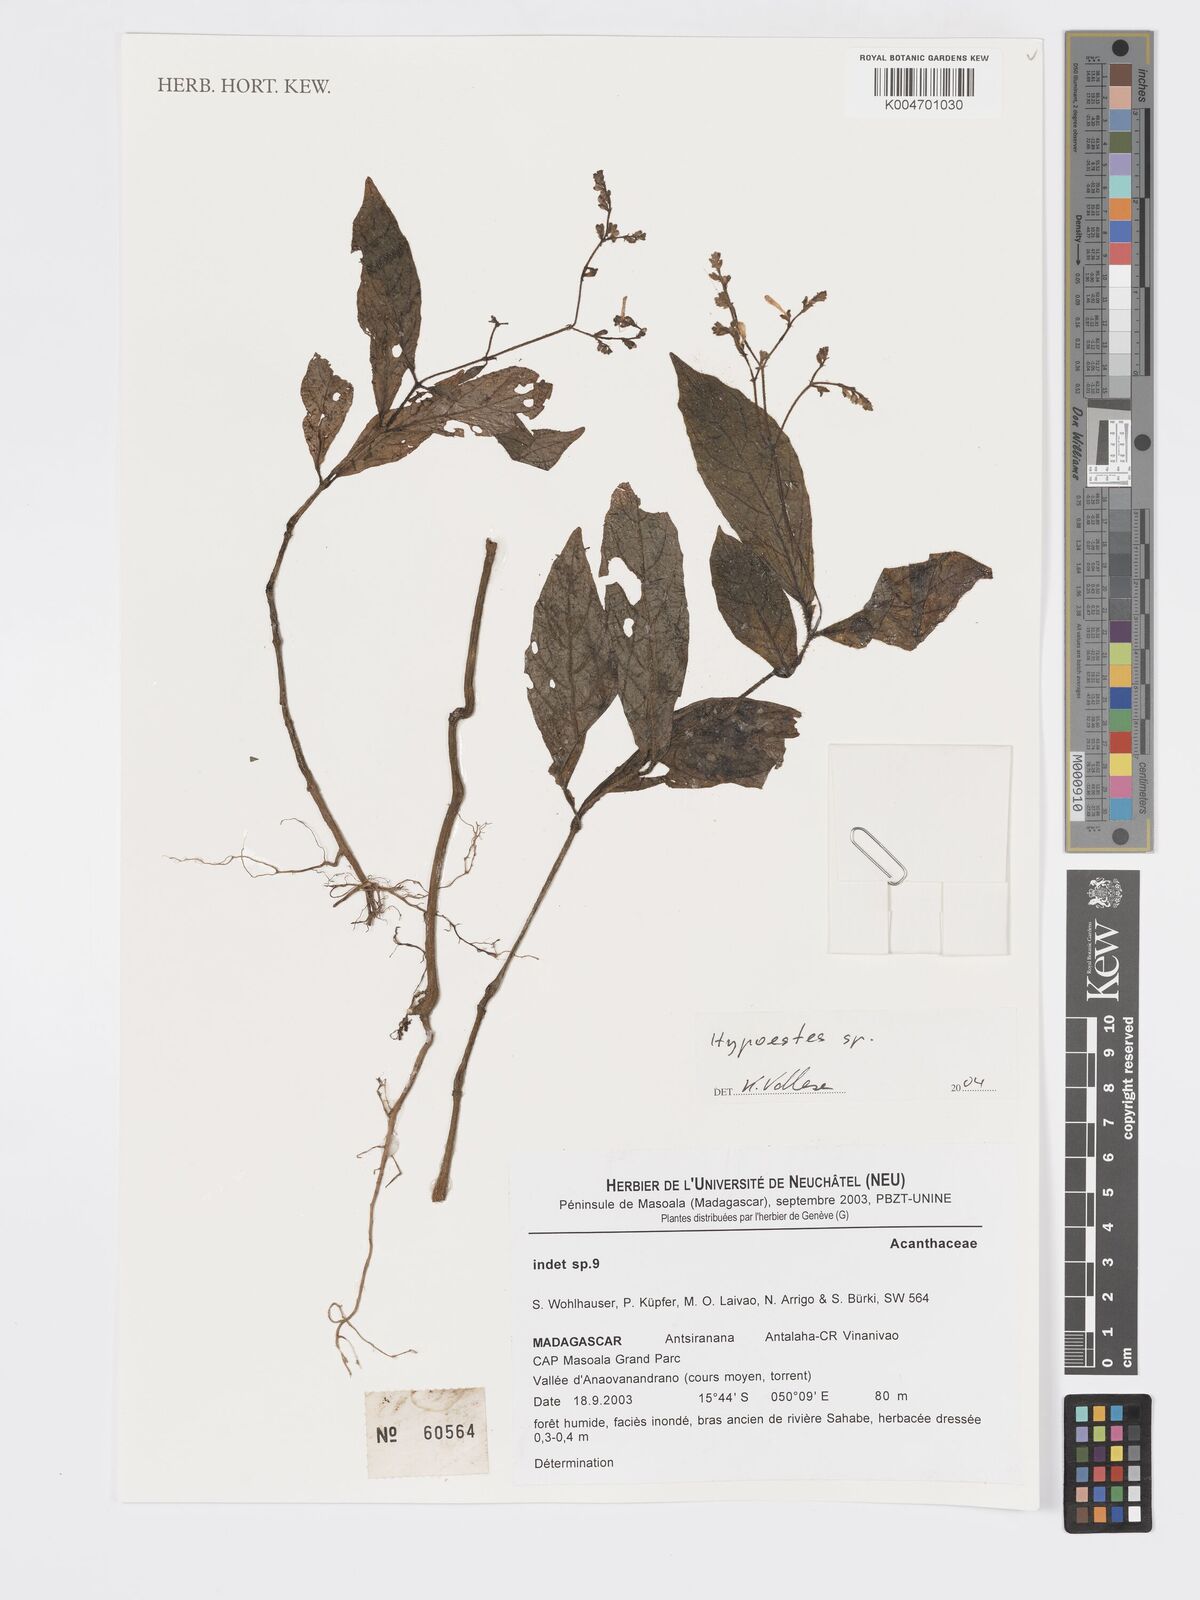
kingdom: Plantae
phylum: Tracheophyta
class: Magnoliopsida
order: Lamiales
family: Acanthaceae
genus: Hypoestes
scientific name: Hypoestes
